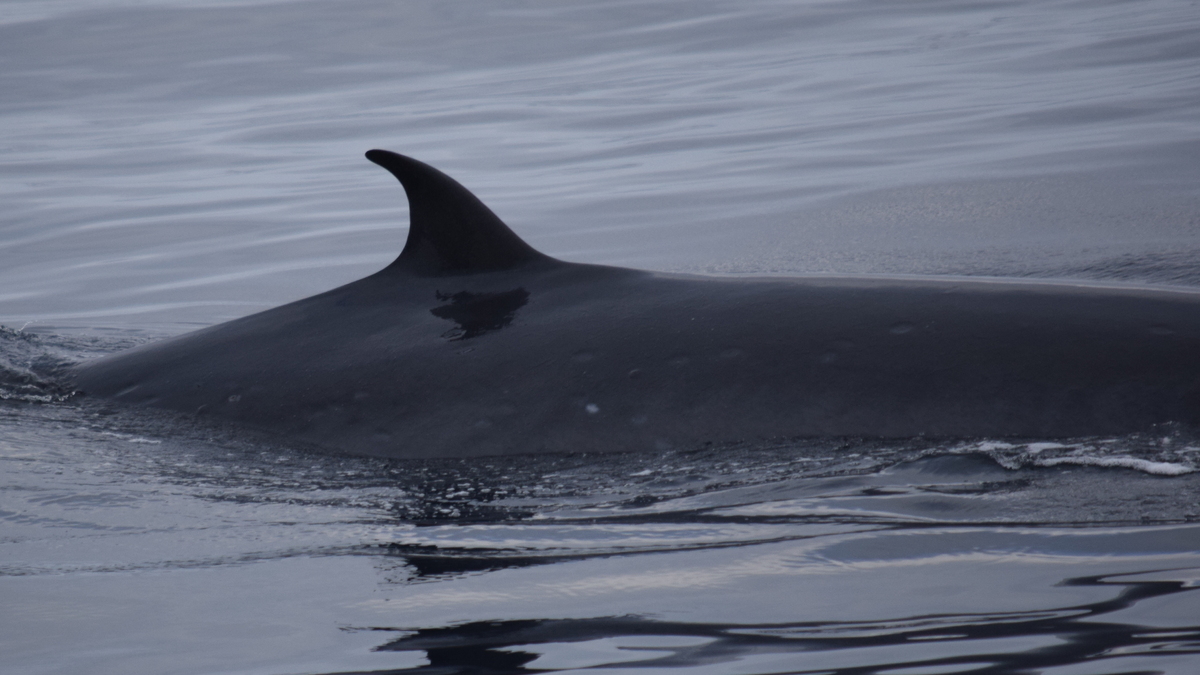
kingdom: Animalia
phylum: Chordata
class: Mammalia
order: Cetacea
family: Balaenopteridae
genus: Balaenoptera
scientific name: Balaenoptera edeni
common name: Bryde's whale
